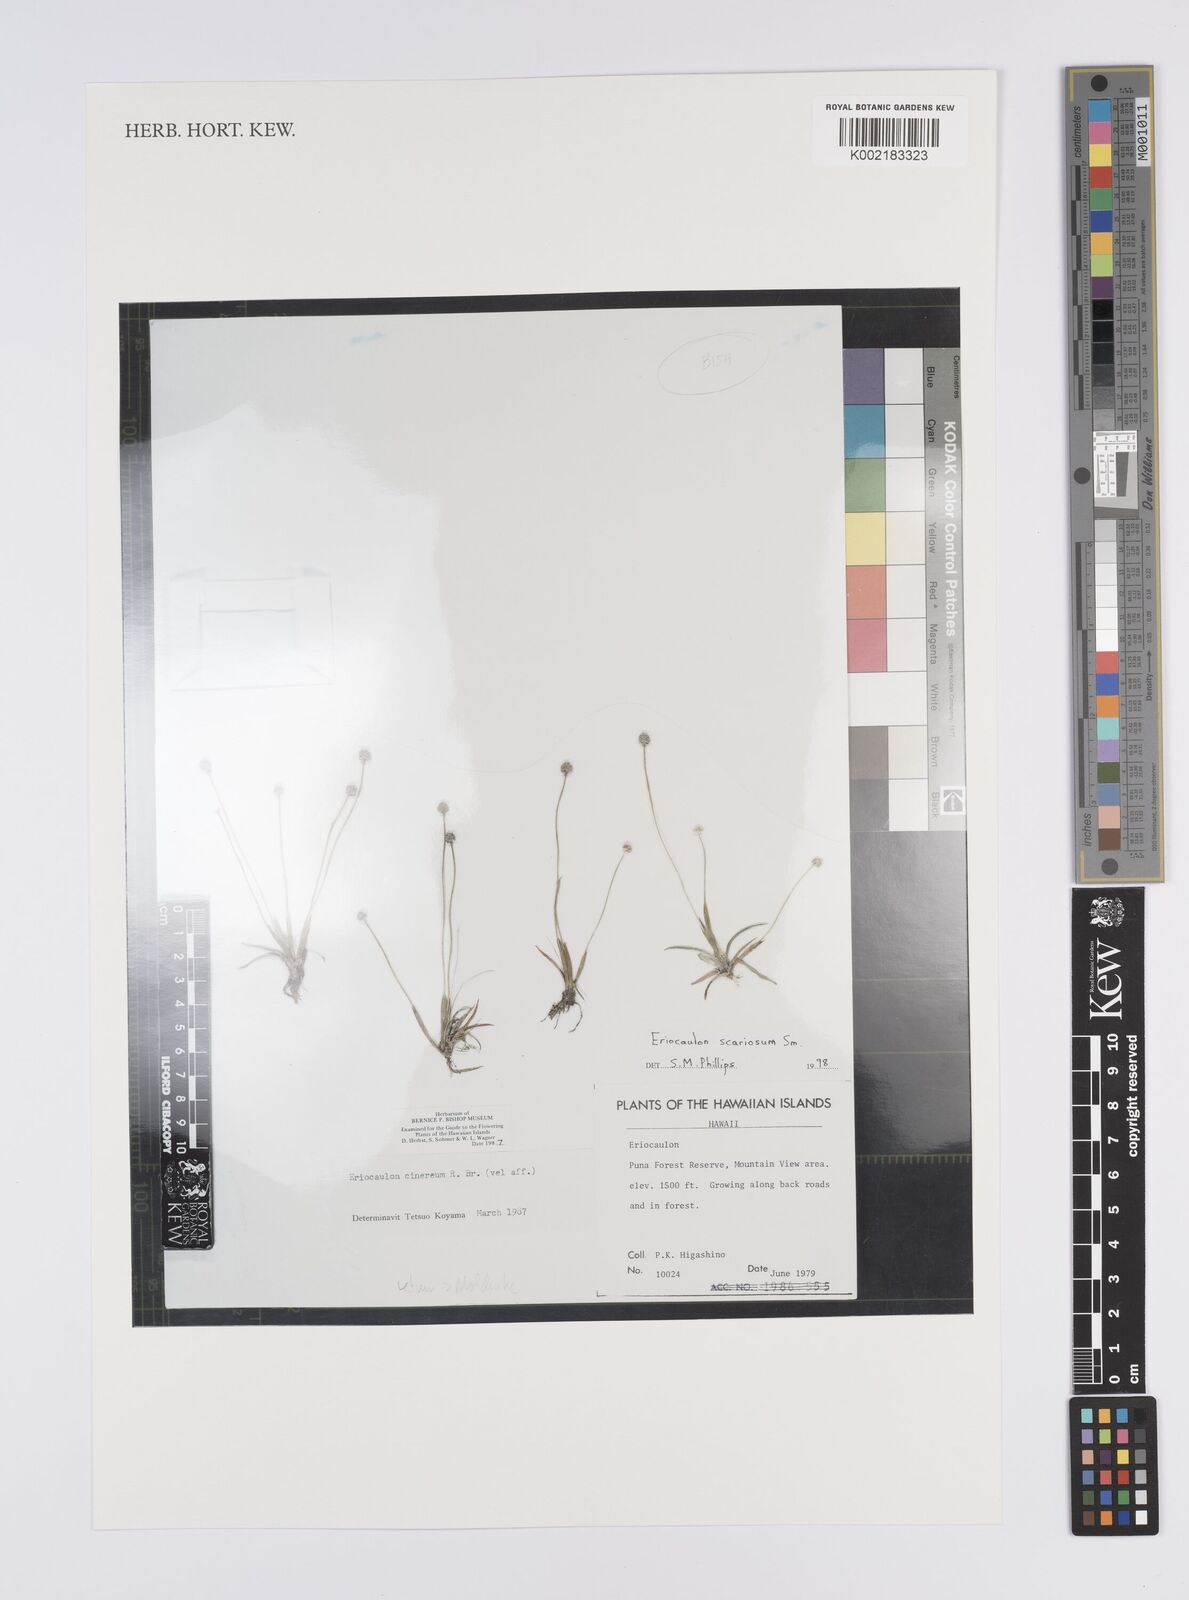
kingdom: Plantae
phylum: Tracheophyta
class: Liliopsida
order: Poales
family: Eriocaulaceae
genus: Eriocaulon
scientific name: Eriocaulon scariosum
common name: Rough pipewort
